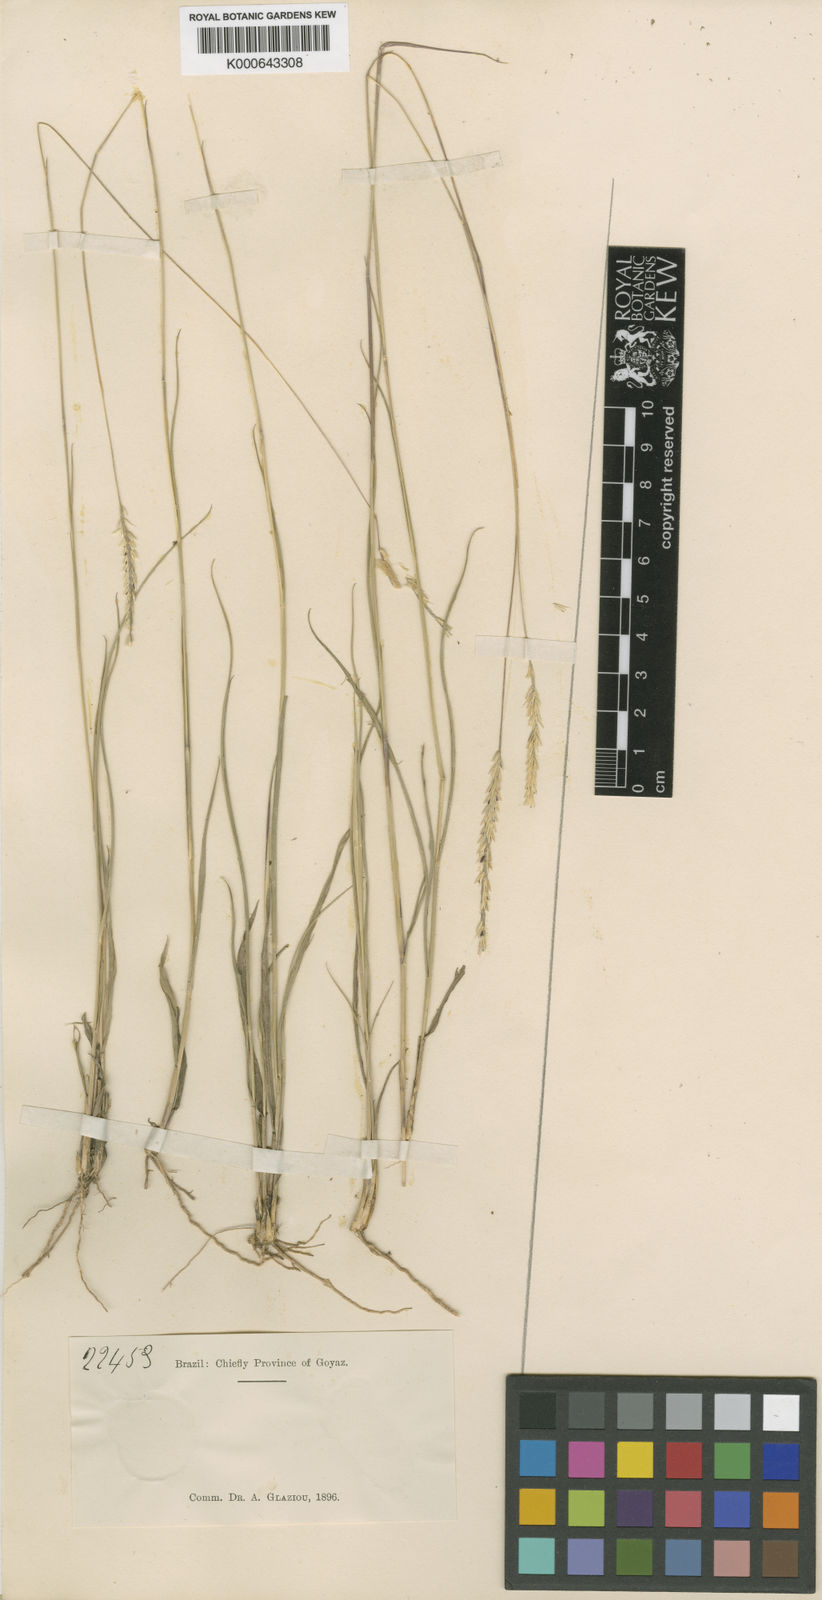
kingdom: Plantae
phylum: Tracheophyta
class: Liliopsida
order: Poales
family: Poaceae
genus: Mesosetum
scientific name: Mesosetum bifarium
